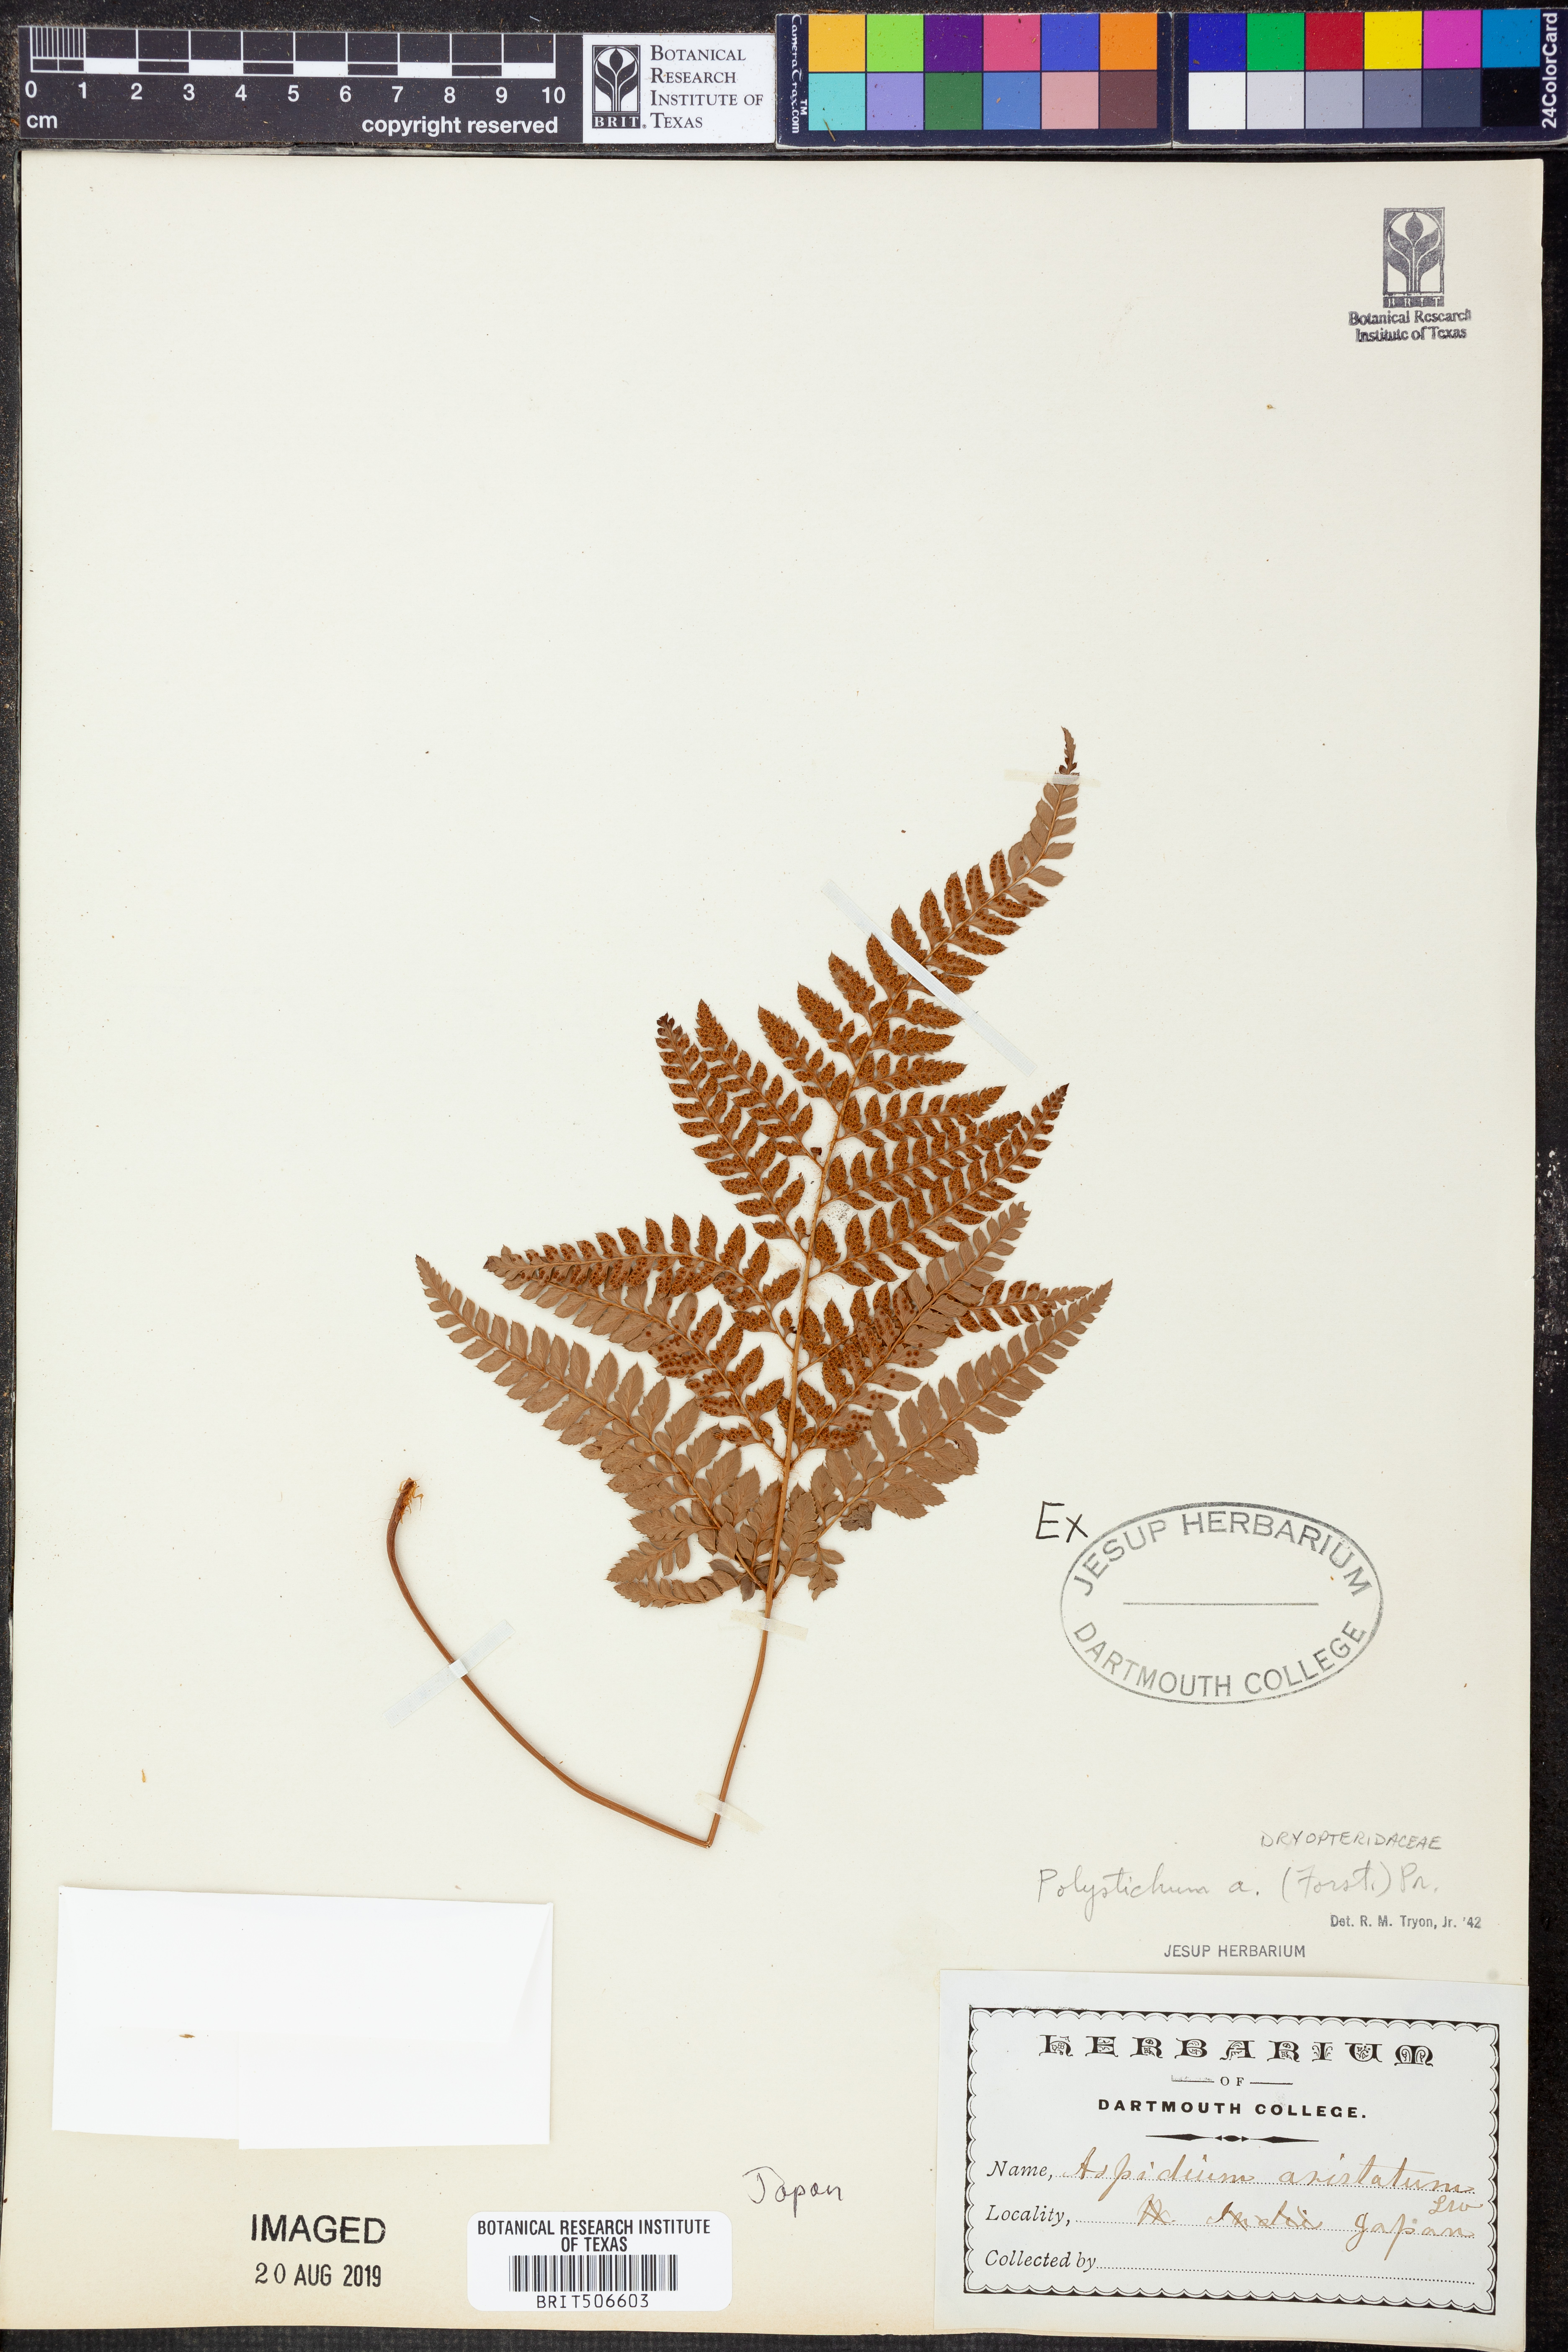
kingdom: Plantae
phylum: Tracheophyta
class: Polypodiopsida
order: Polypodiales
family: Dryopteridaceae
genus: Polystichum
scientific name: Polystichum aristatum
